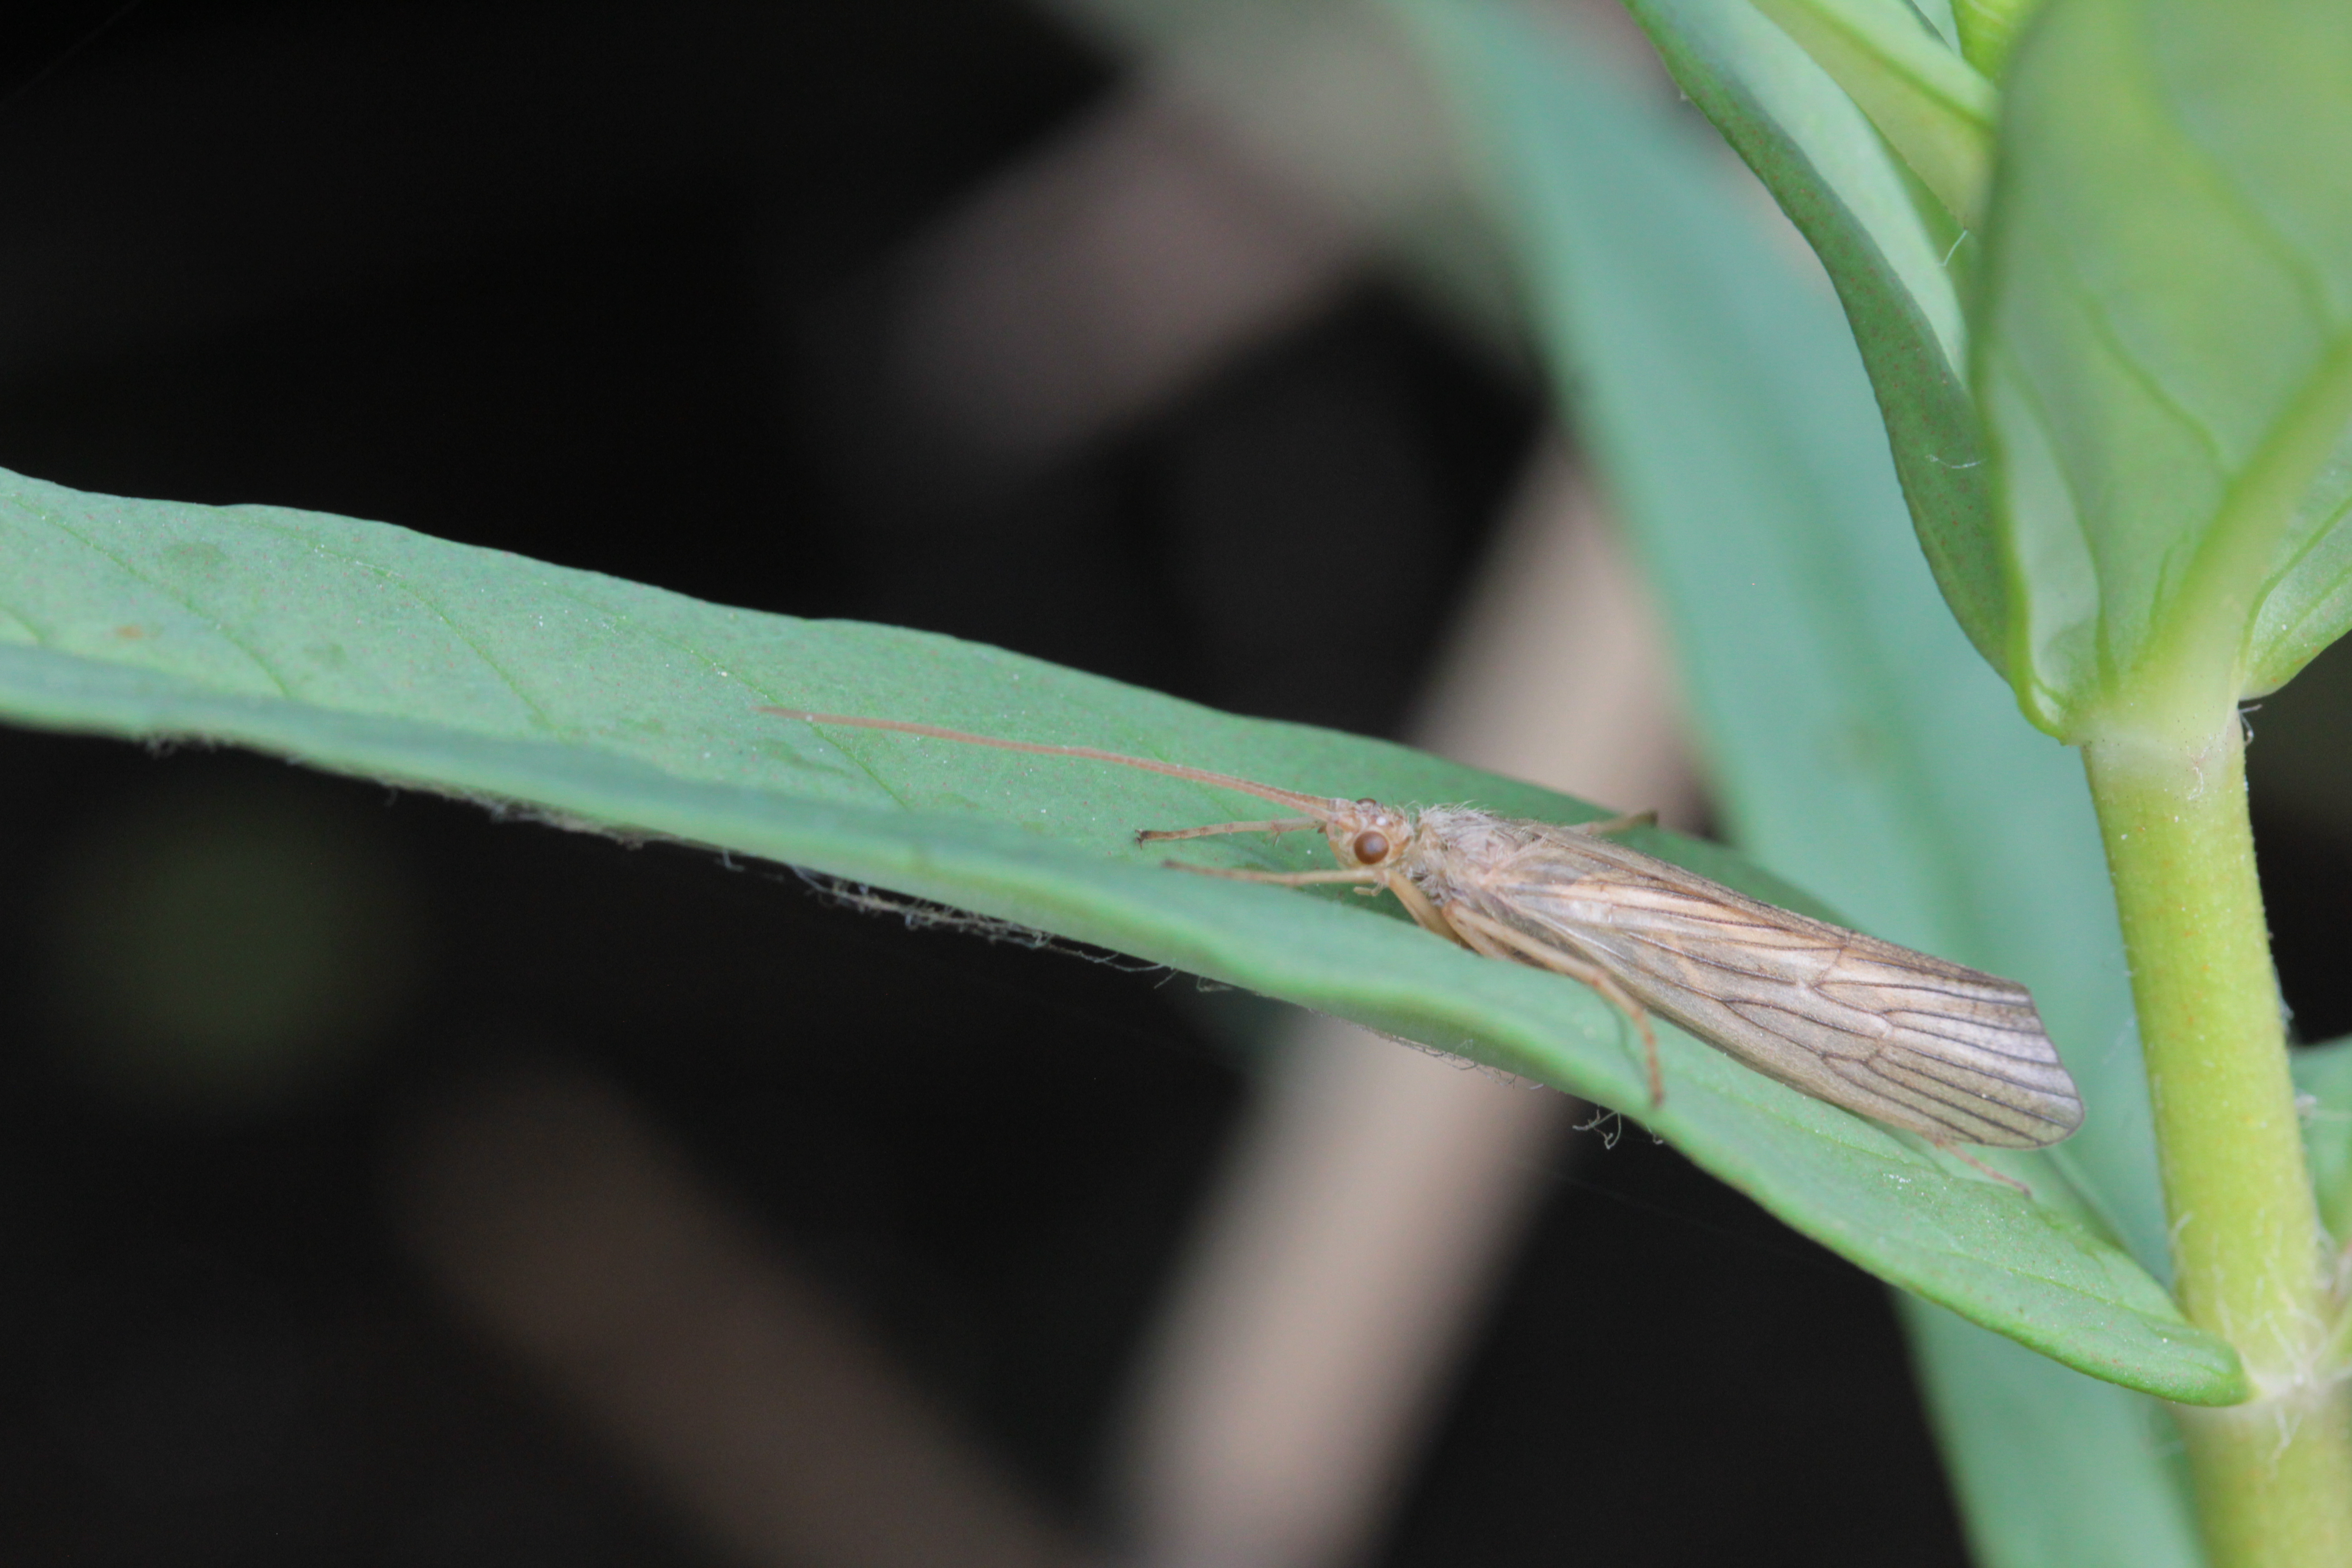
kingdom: Animalia
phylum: Arthropoda
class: Insecta
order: Trichoptera
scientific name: Trichoptera
